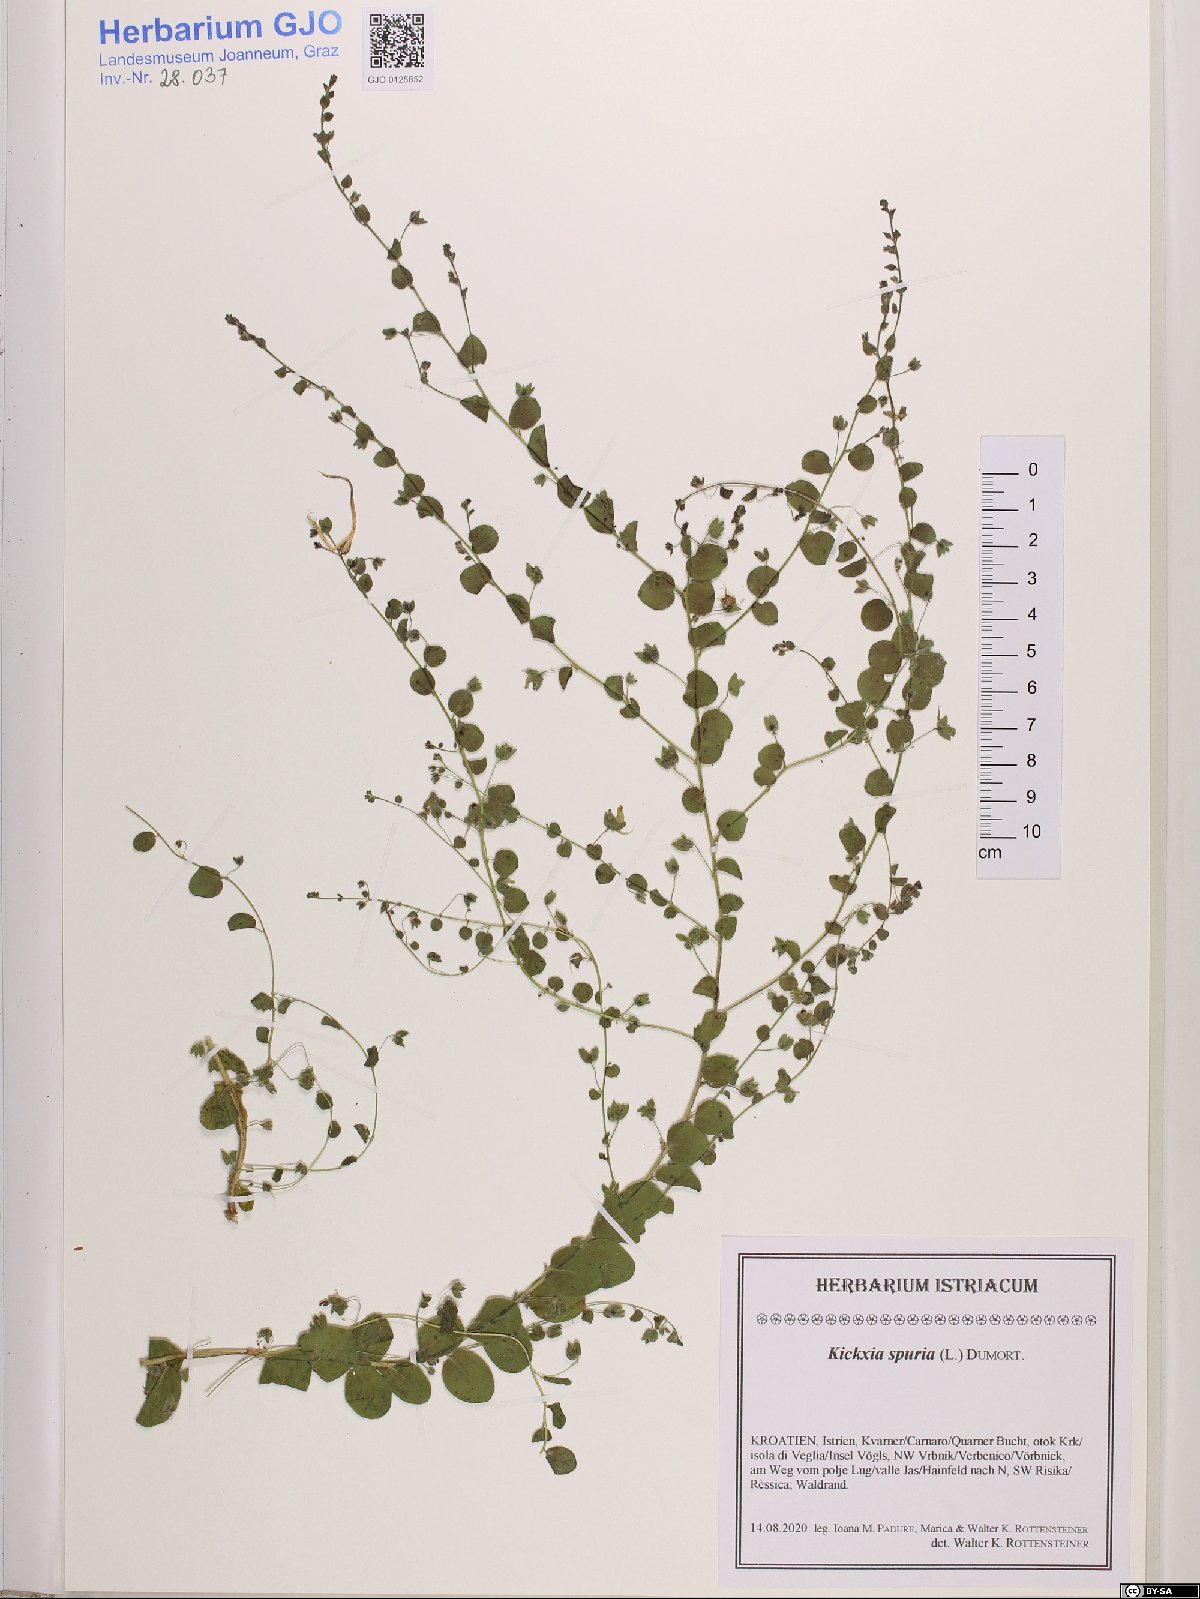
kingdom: Plantae
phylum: Tracheophyta
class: Magnoliopsida
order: Lamiales
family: Plantaginaceae
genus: Kickxia
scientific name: Kickxia spuria
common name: Round-leaved fluellen
